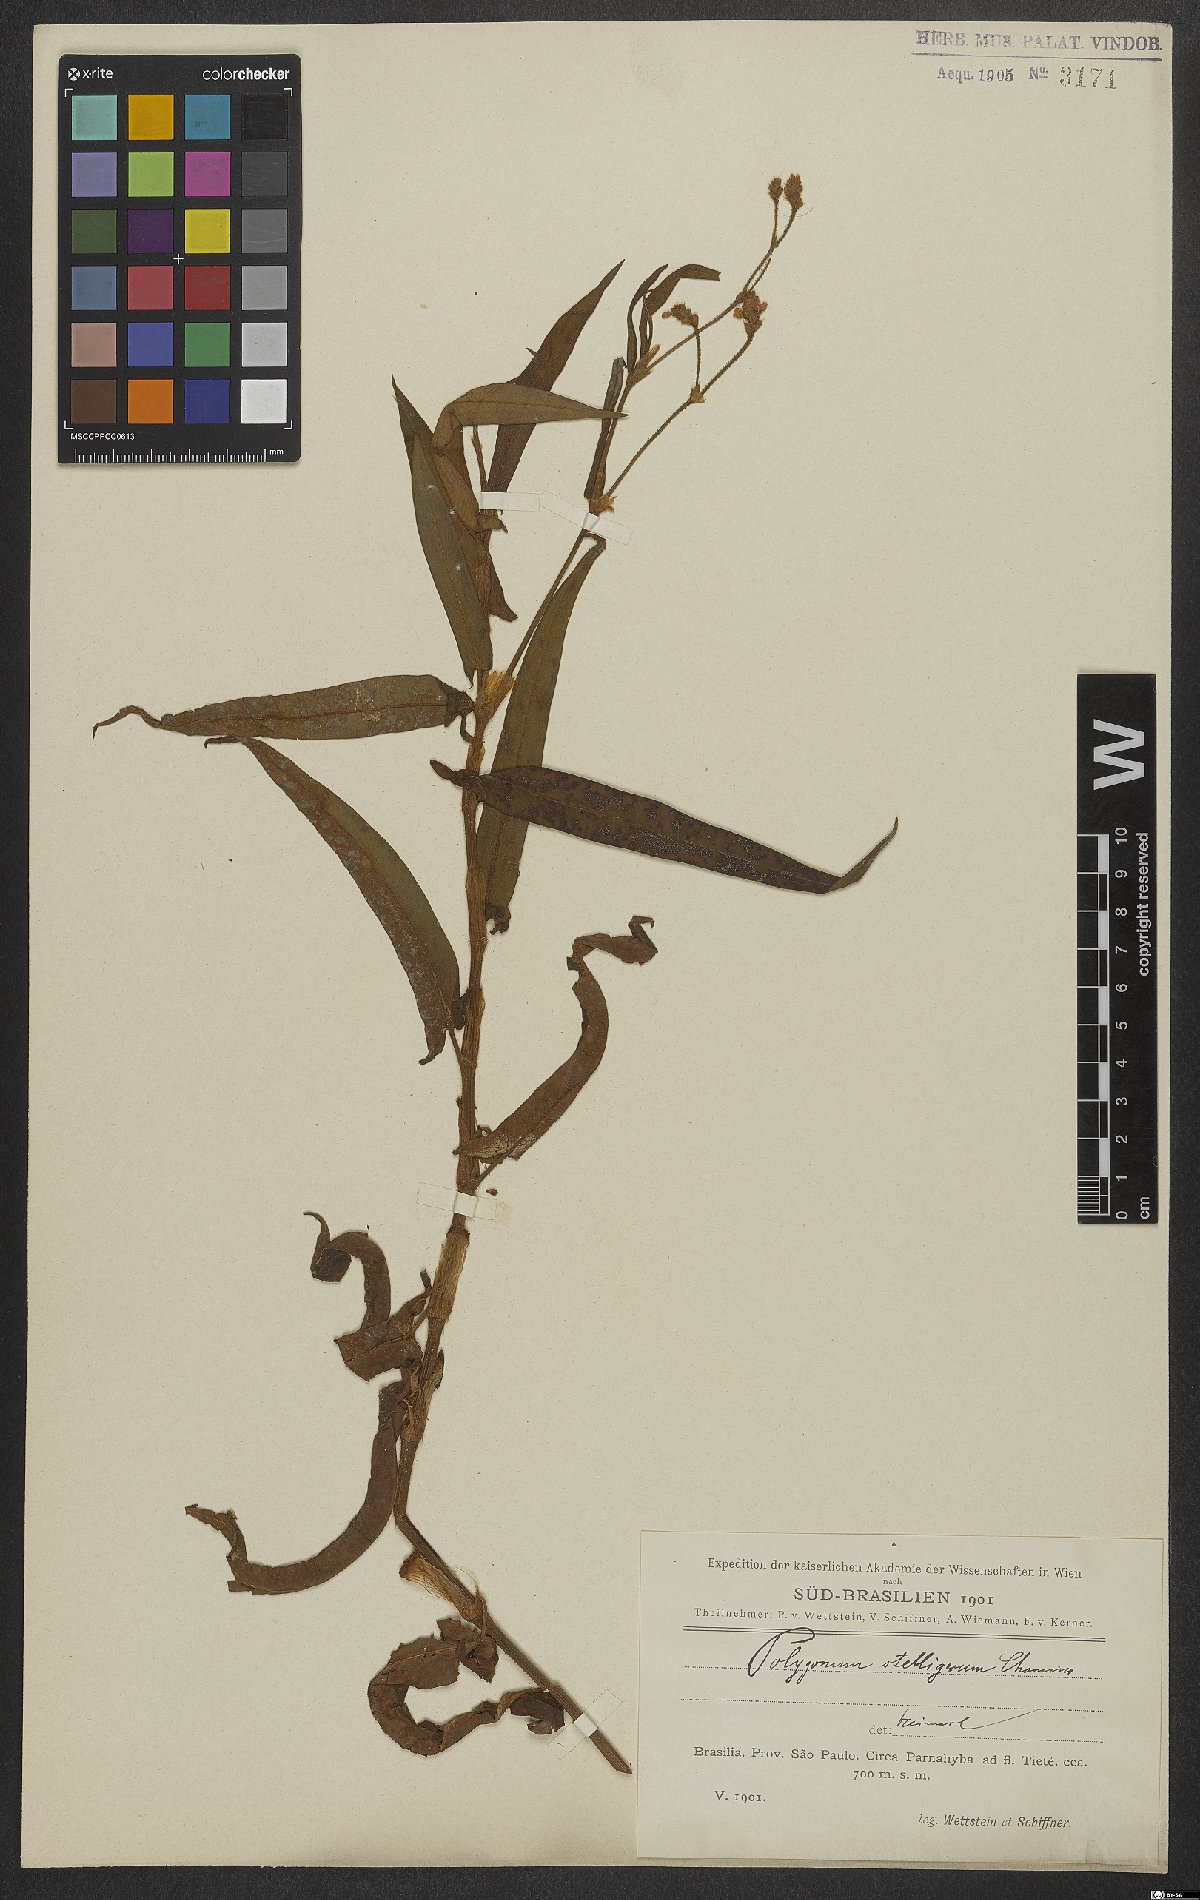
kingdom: Plantae
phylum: Tracheophyta
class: Magnoliopsida
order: Caryophyllales
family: Polygonaceae
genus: Persicaria
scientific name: Persicaria stelligera
